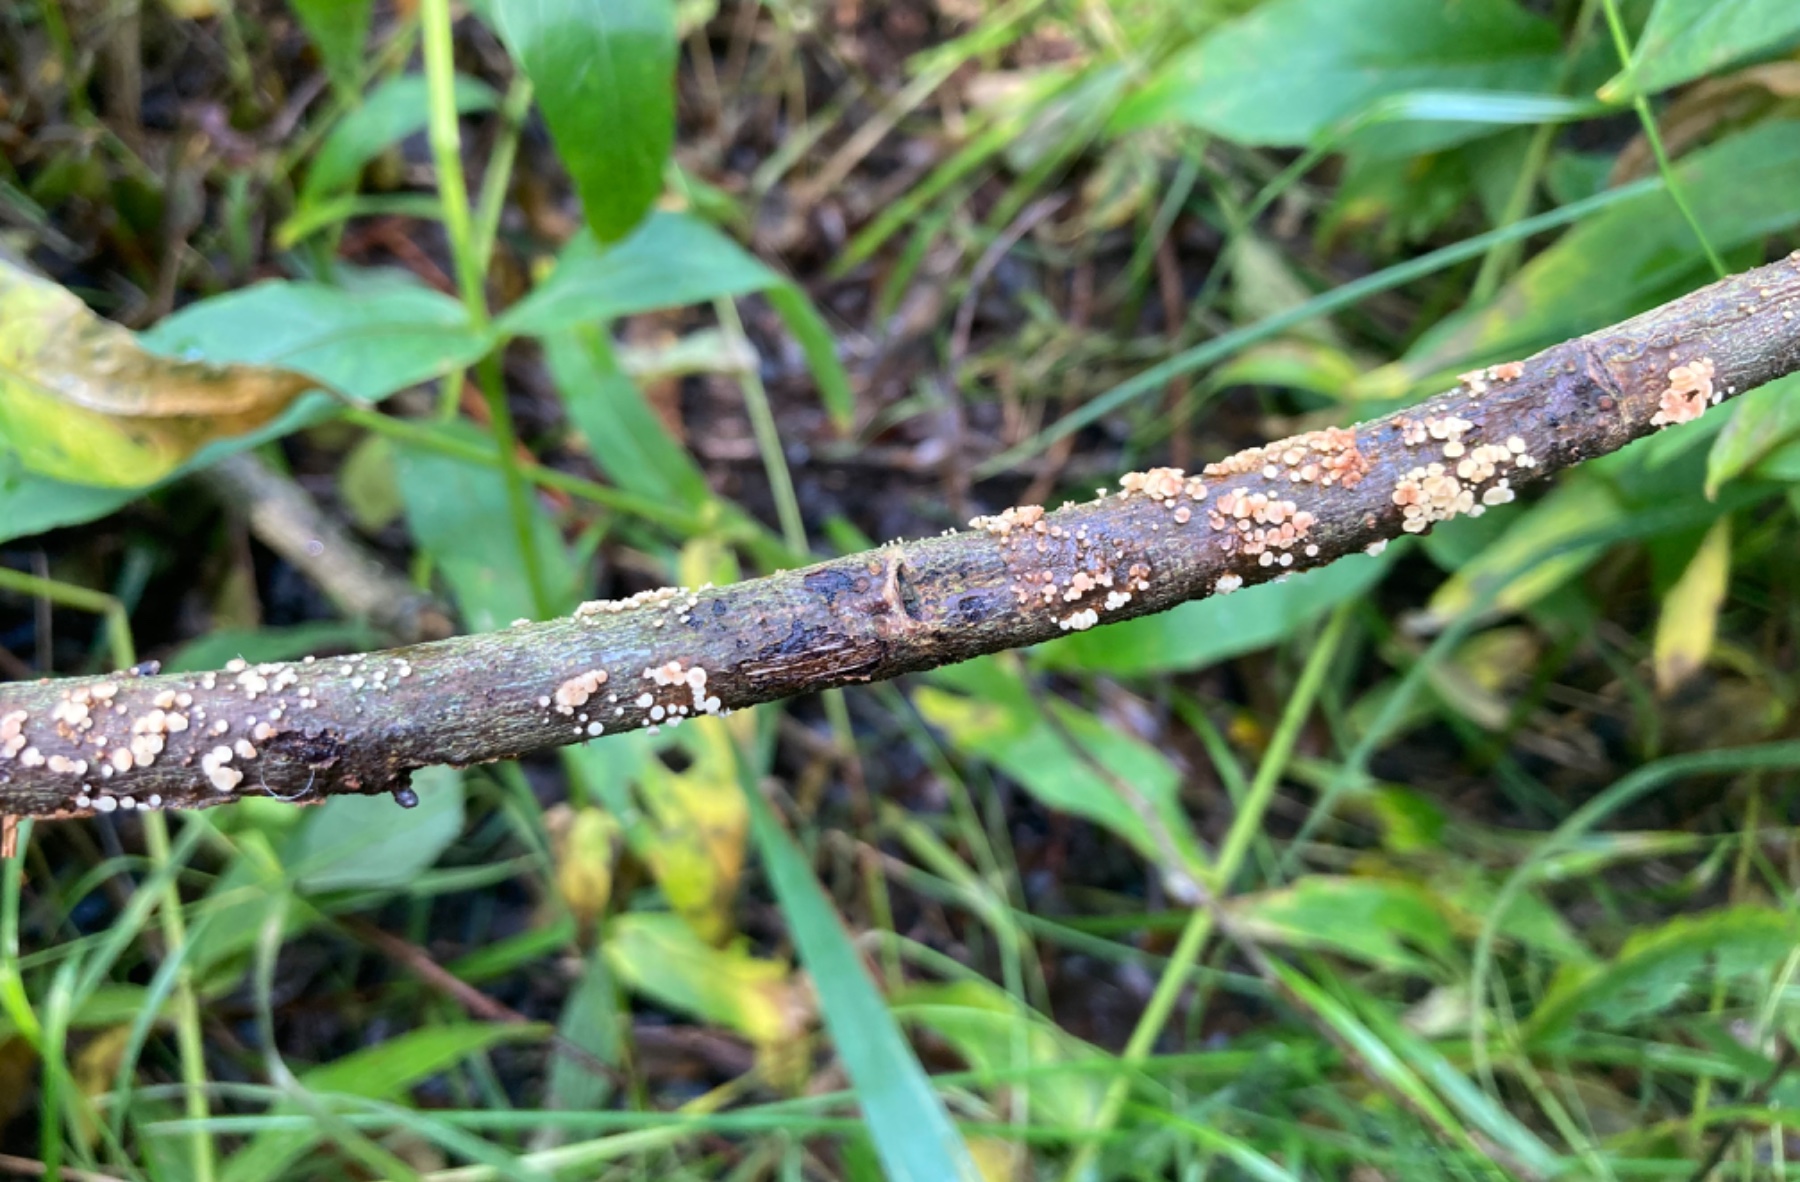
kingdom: Fungi
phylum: Ascomycota
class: Leotiomycetes
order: Helotiales
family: Pezizellaceae
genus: Calycina
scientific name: Calycina
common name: gulskive
